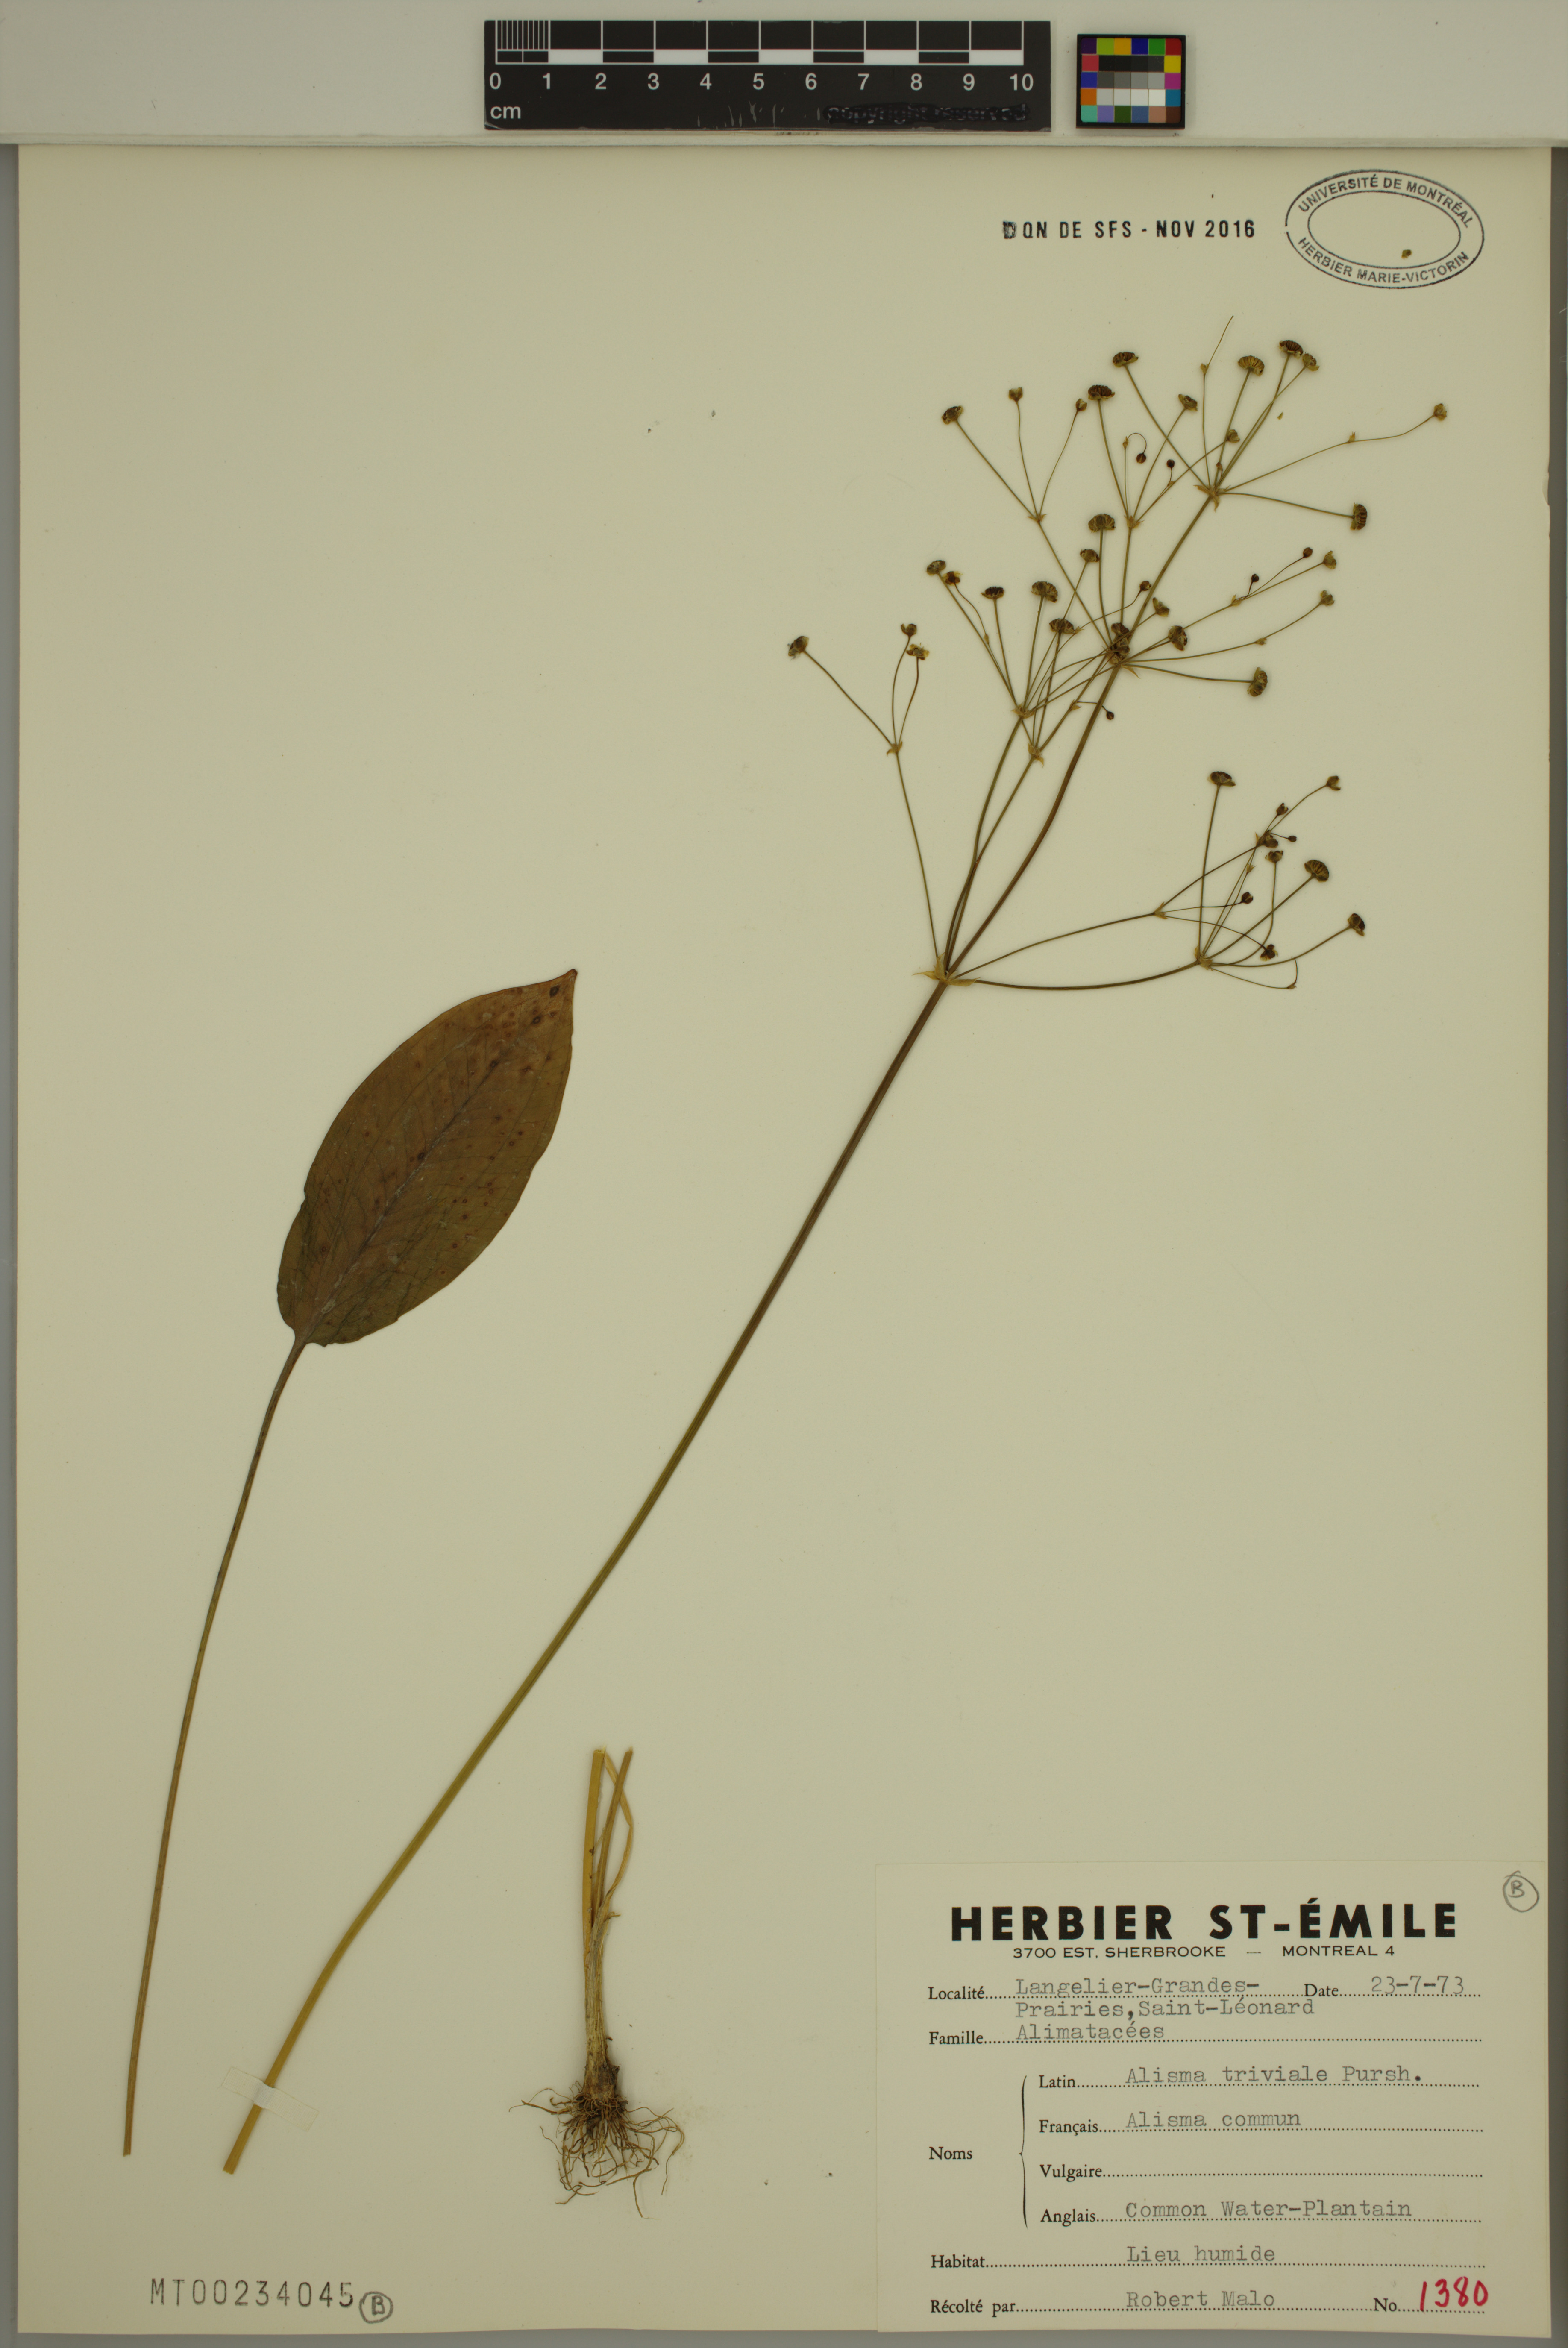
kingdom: Plantae
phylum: Tracheophyta
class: Liliopsida
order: Alismatales
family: Alismataceae
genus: Alisma
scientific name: Alisma triviale
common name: Northern water-plantain
